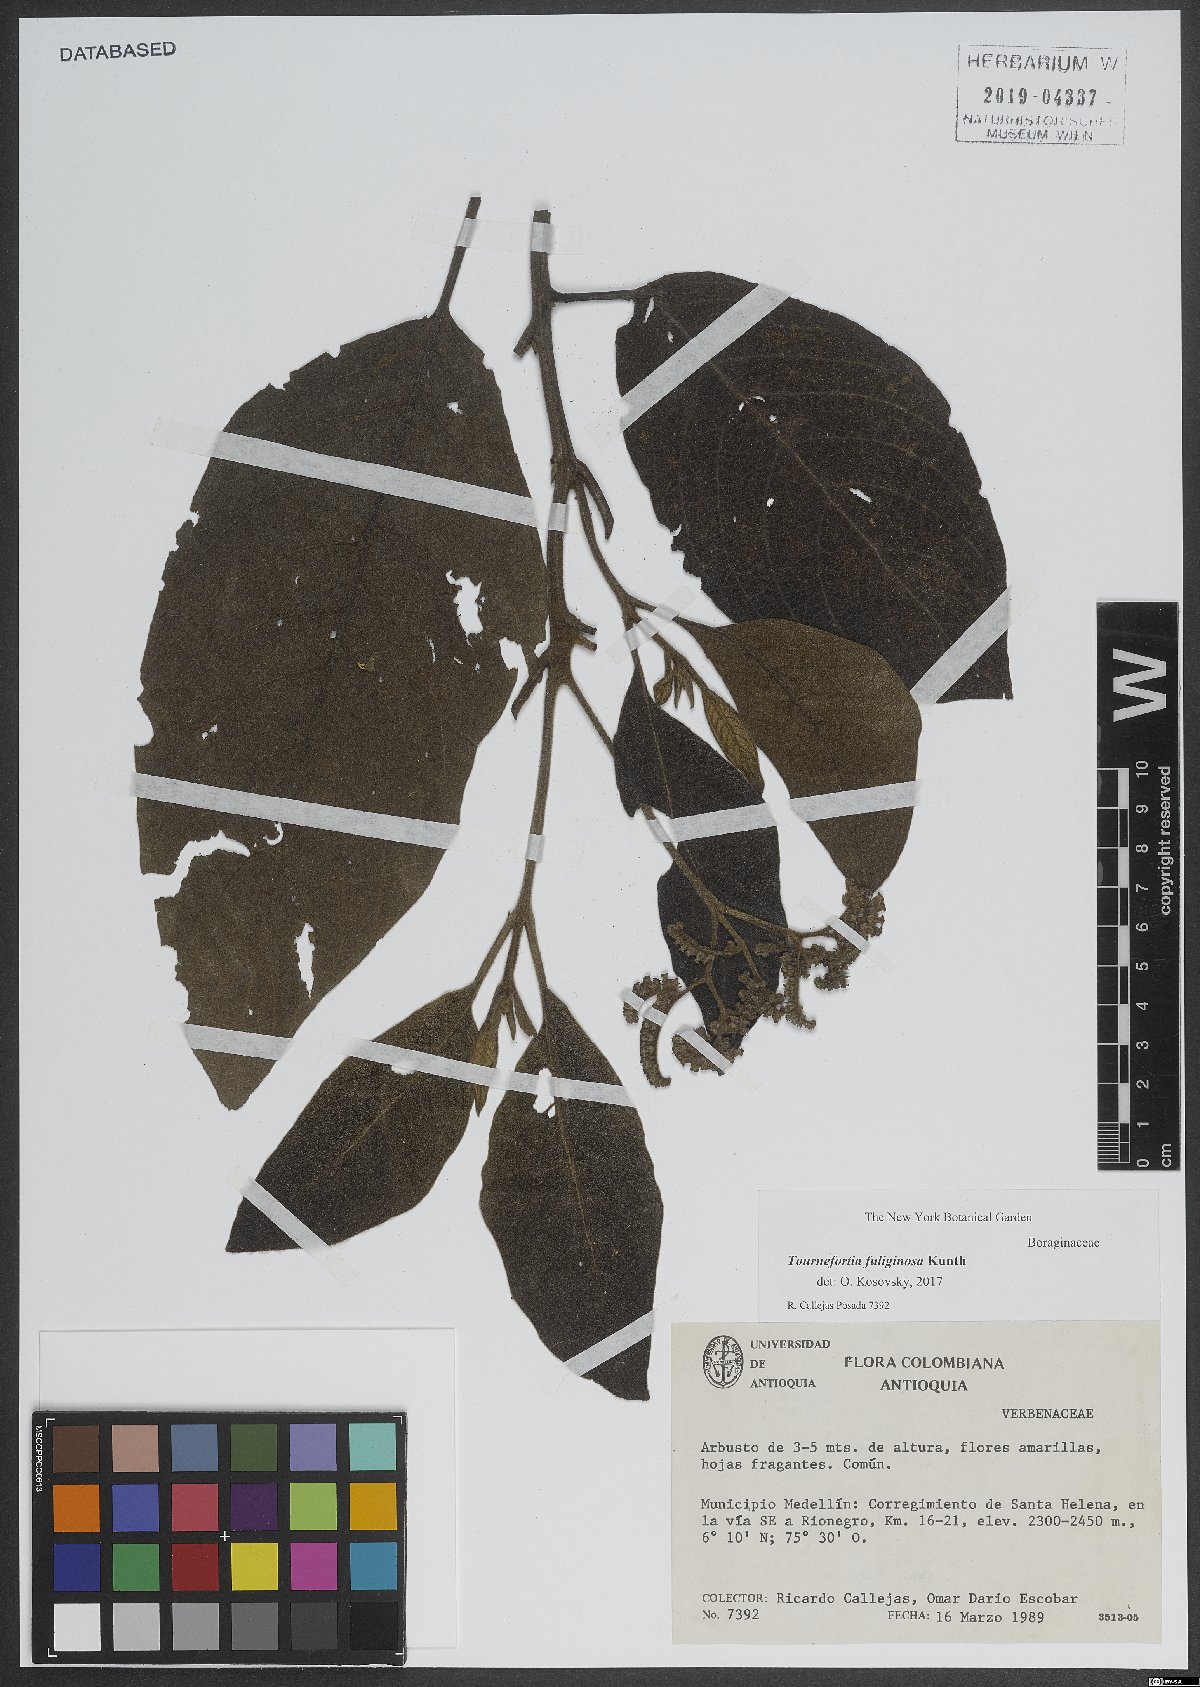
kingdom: Plantae
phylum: Tracheophyta
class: Magnoliopsida
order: Boraginales
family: Heliotropiaceae
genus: Heliotropium
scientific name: Heliotropium fuliginosum
